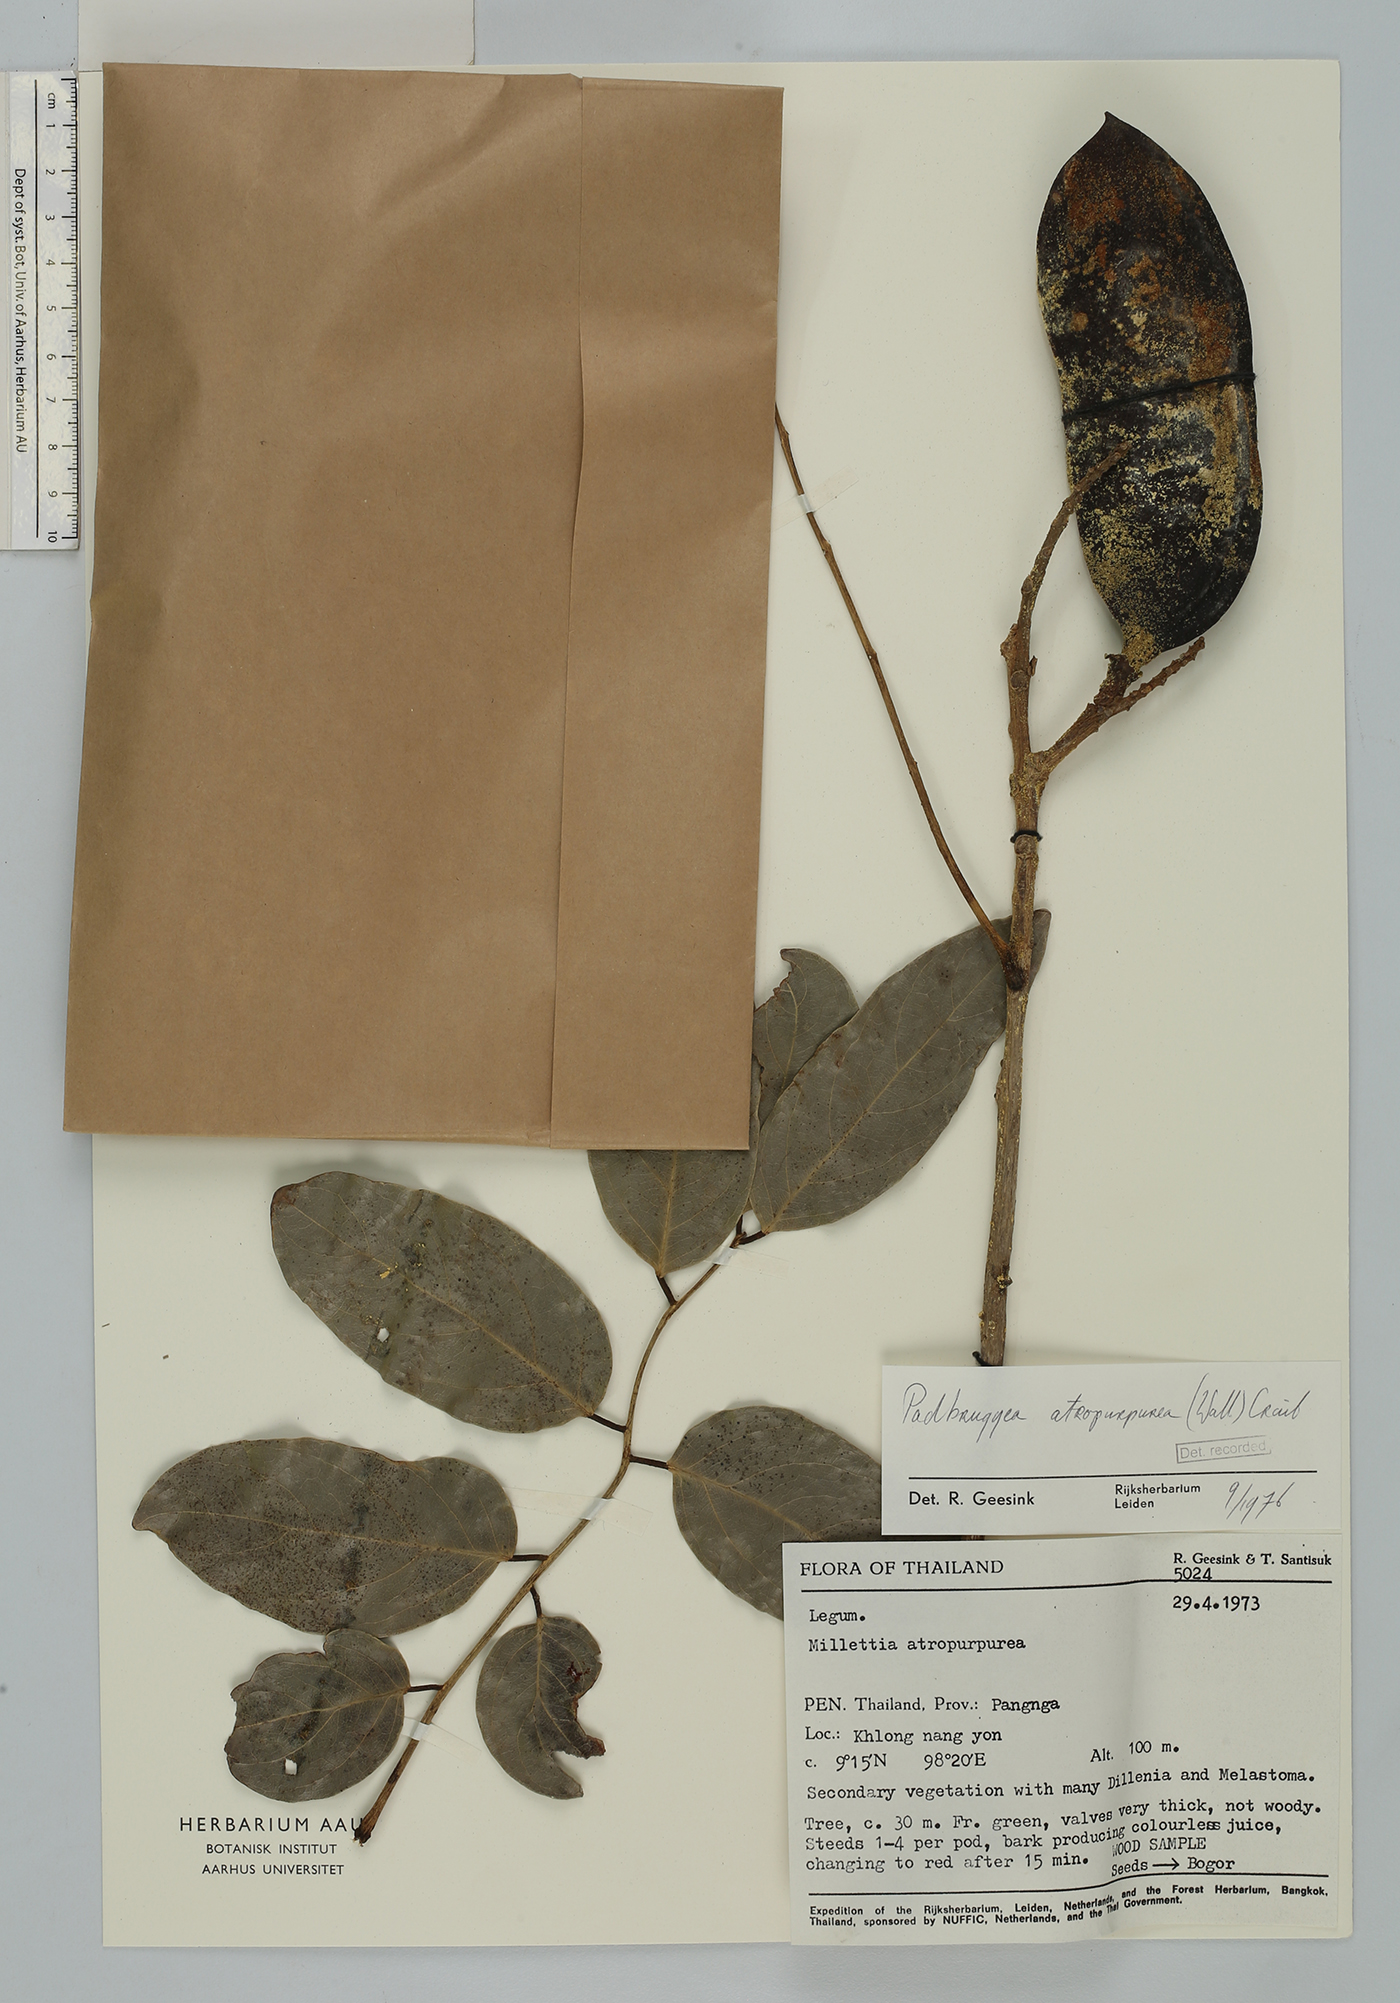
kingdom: Plantae
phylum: Tracheophyta
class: Magnoliopsida
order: Fabales
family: Fabaceae
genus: Adinobotrys
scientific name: Adinobotrys atropurpureus
